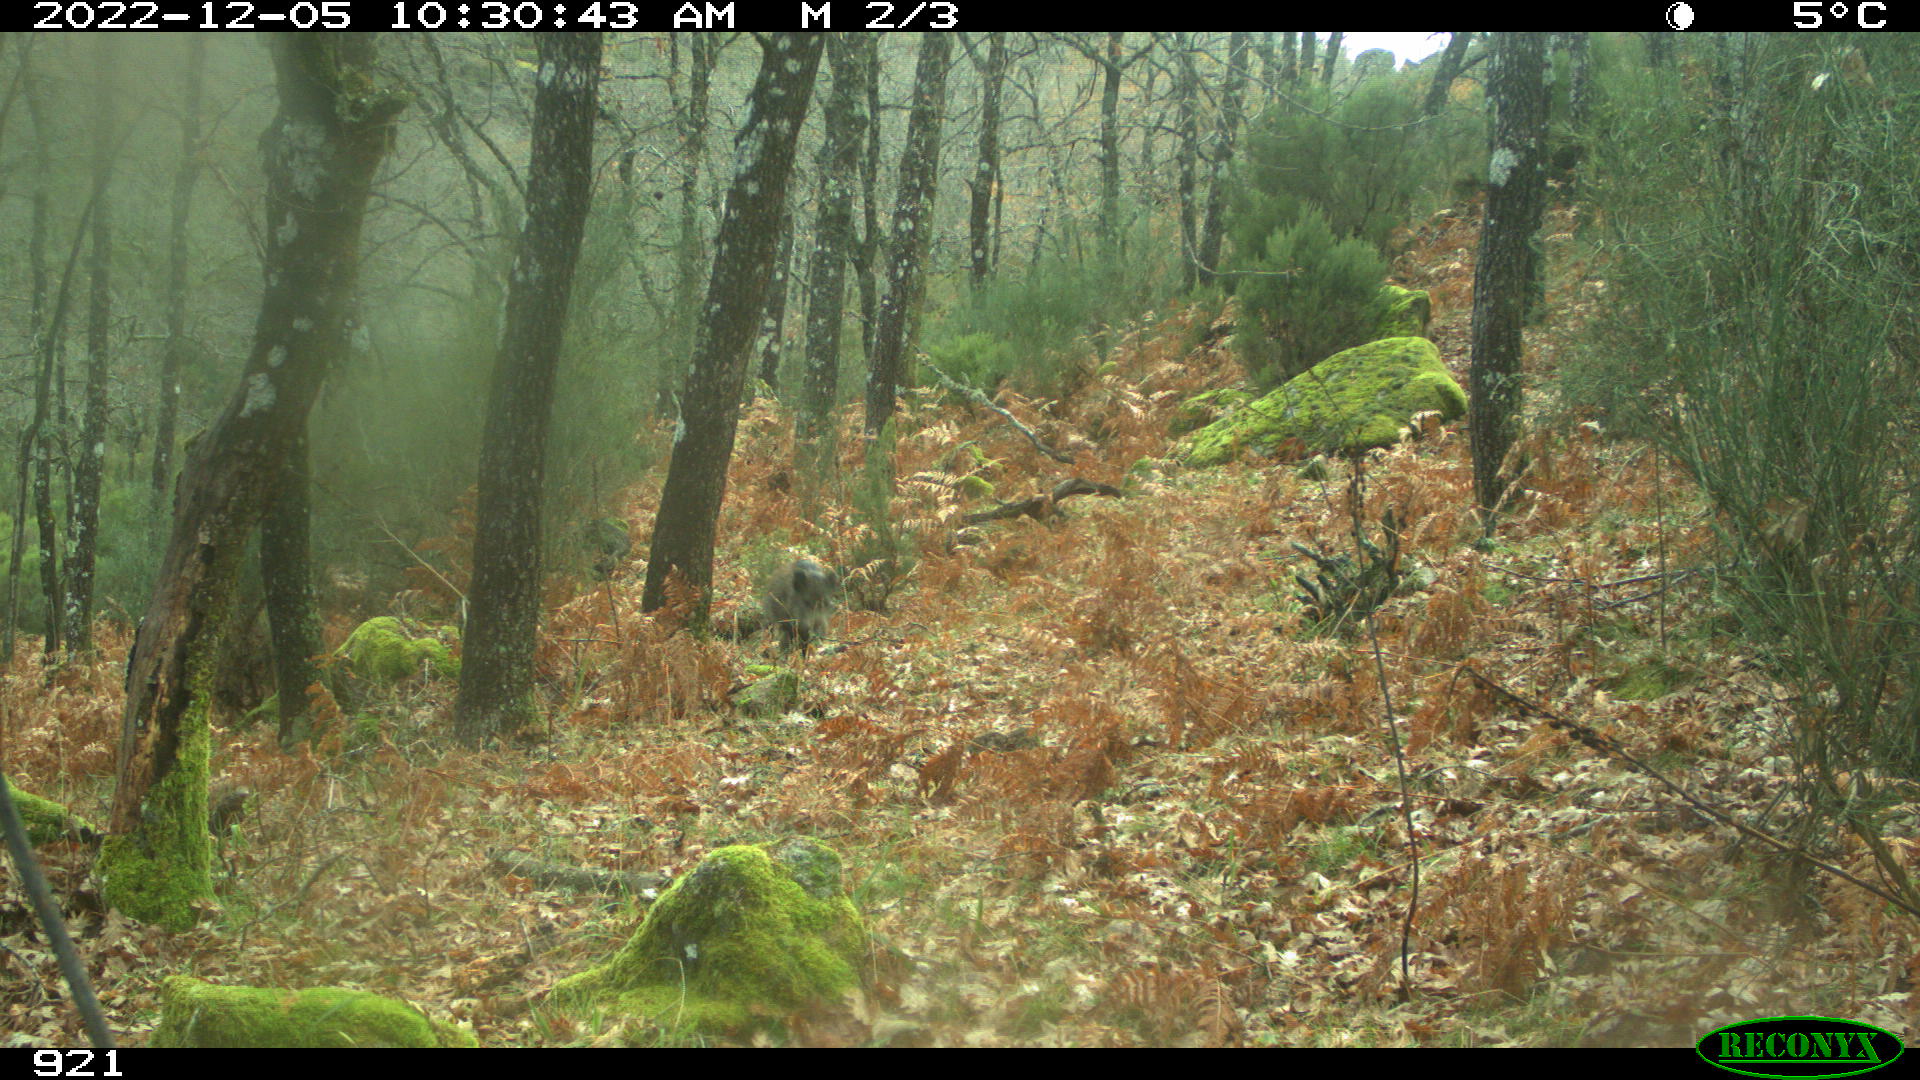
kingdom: Animalia
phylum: Chordata
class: Mammalia
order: Artiodactyla
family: Suidae
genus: Sus
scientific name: Sus scrofa
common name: Wild boar
